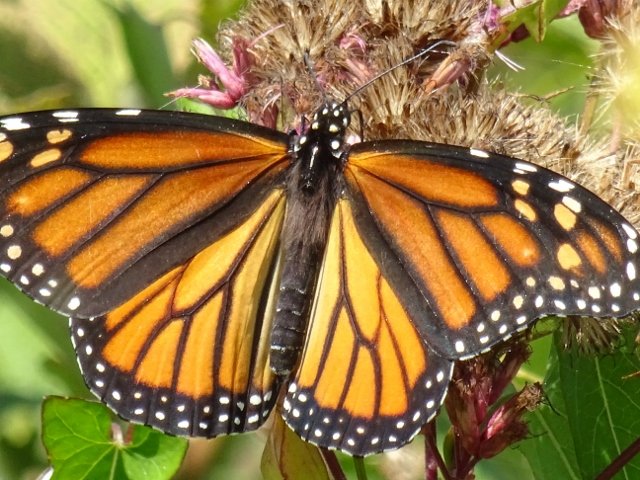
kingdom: Animalia
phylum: Arthropoda
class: Insecta
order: Lepidoptera
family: Nymphalidae
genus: Danaus
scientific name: Danaus plexippus
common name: Monarch
